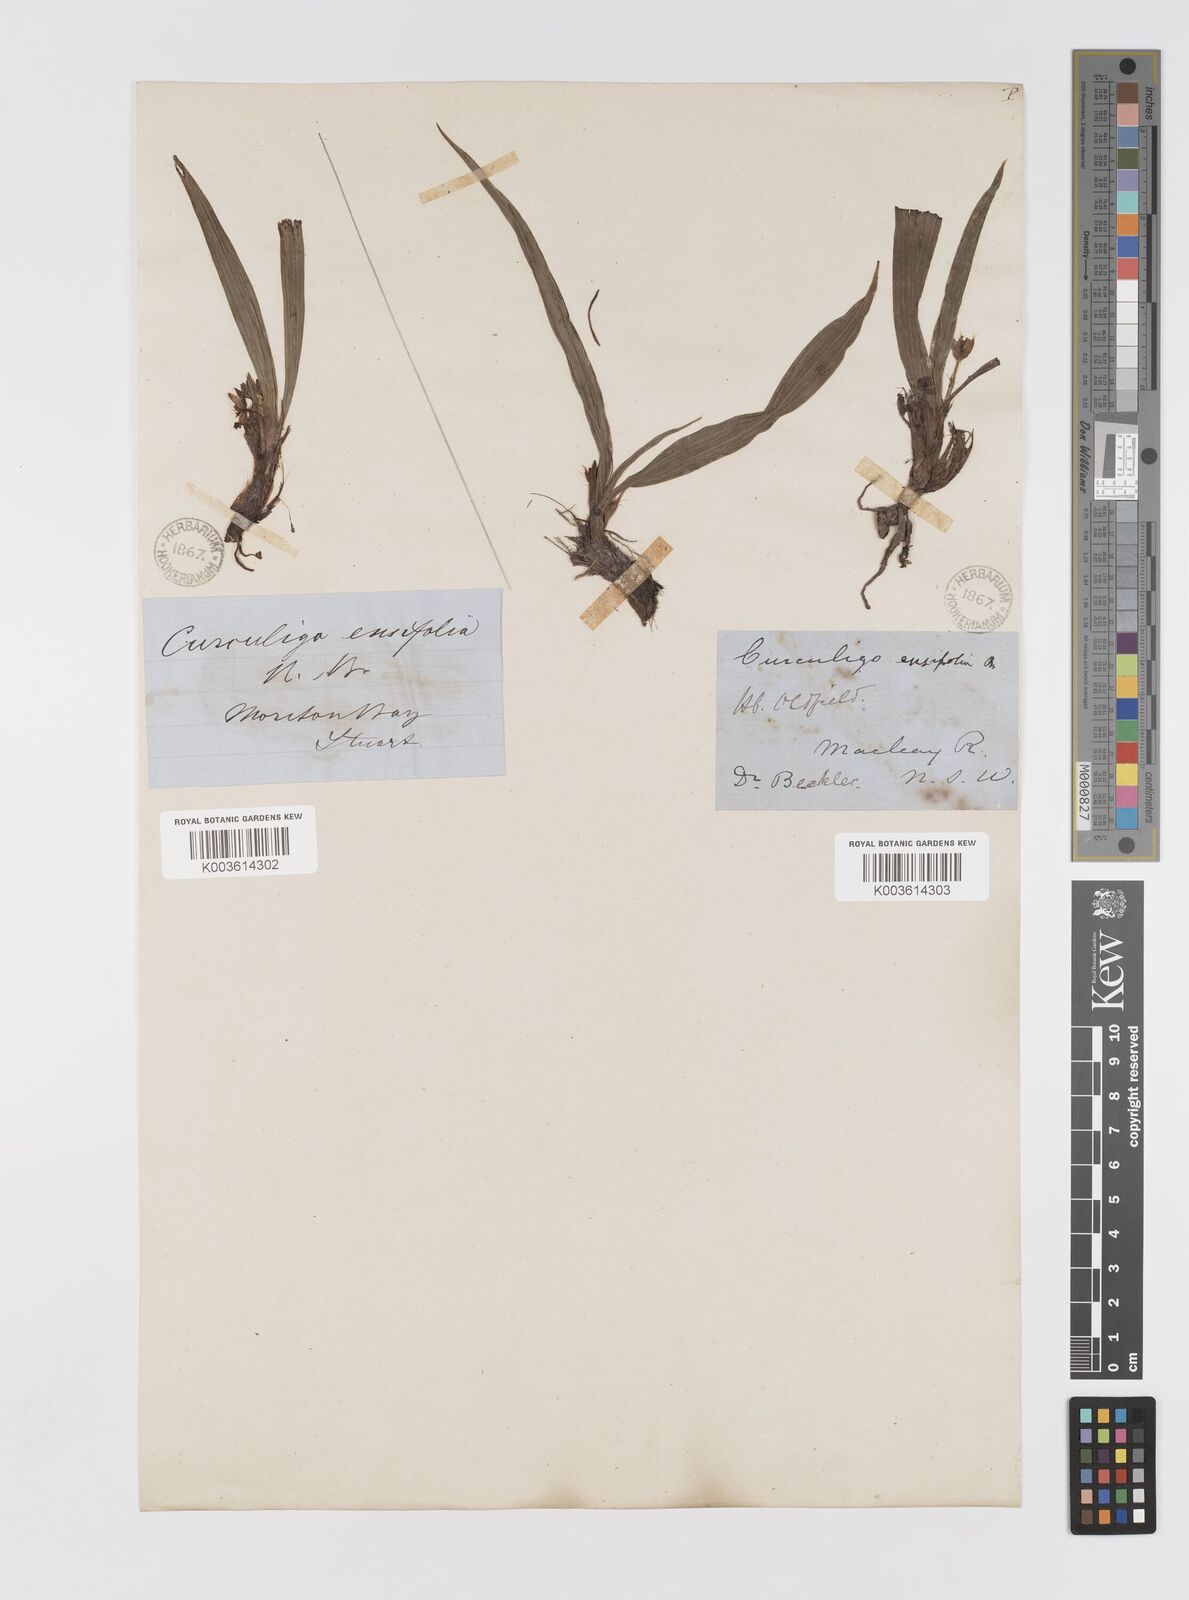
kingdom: Plantae
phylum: Tracheophyta
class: Liliopsida
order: Asparagales
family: Hypoxidaceae
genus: Curculigo
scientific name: Curculigo orchioides
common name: Golden eye-grass
